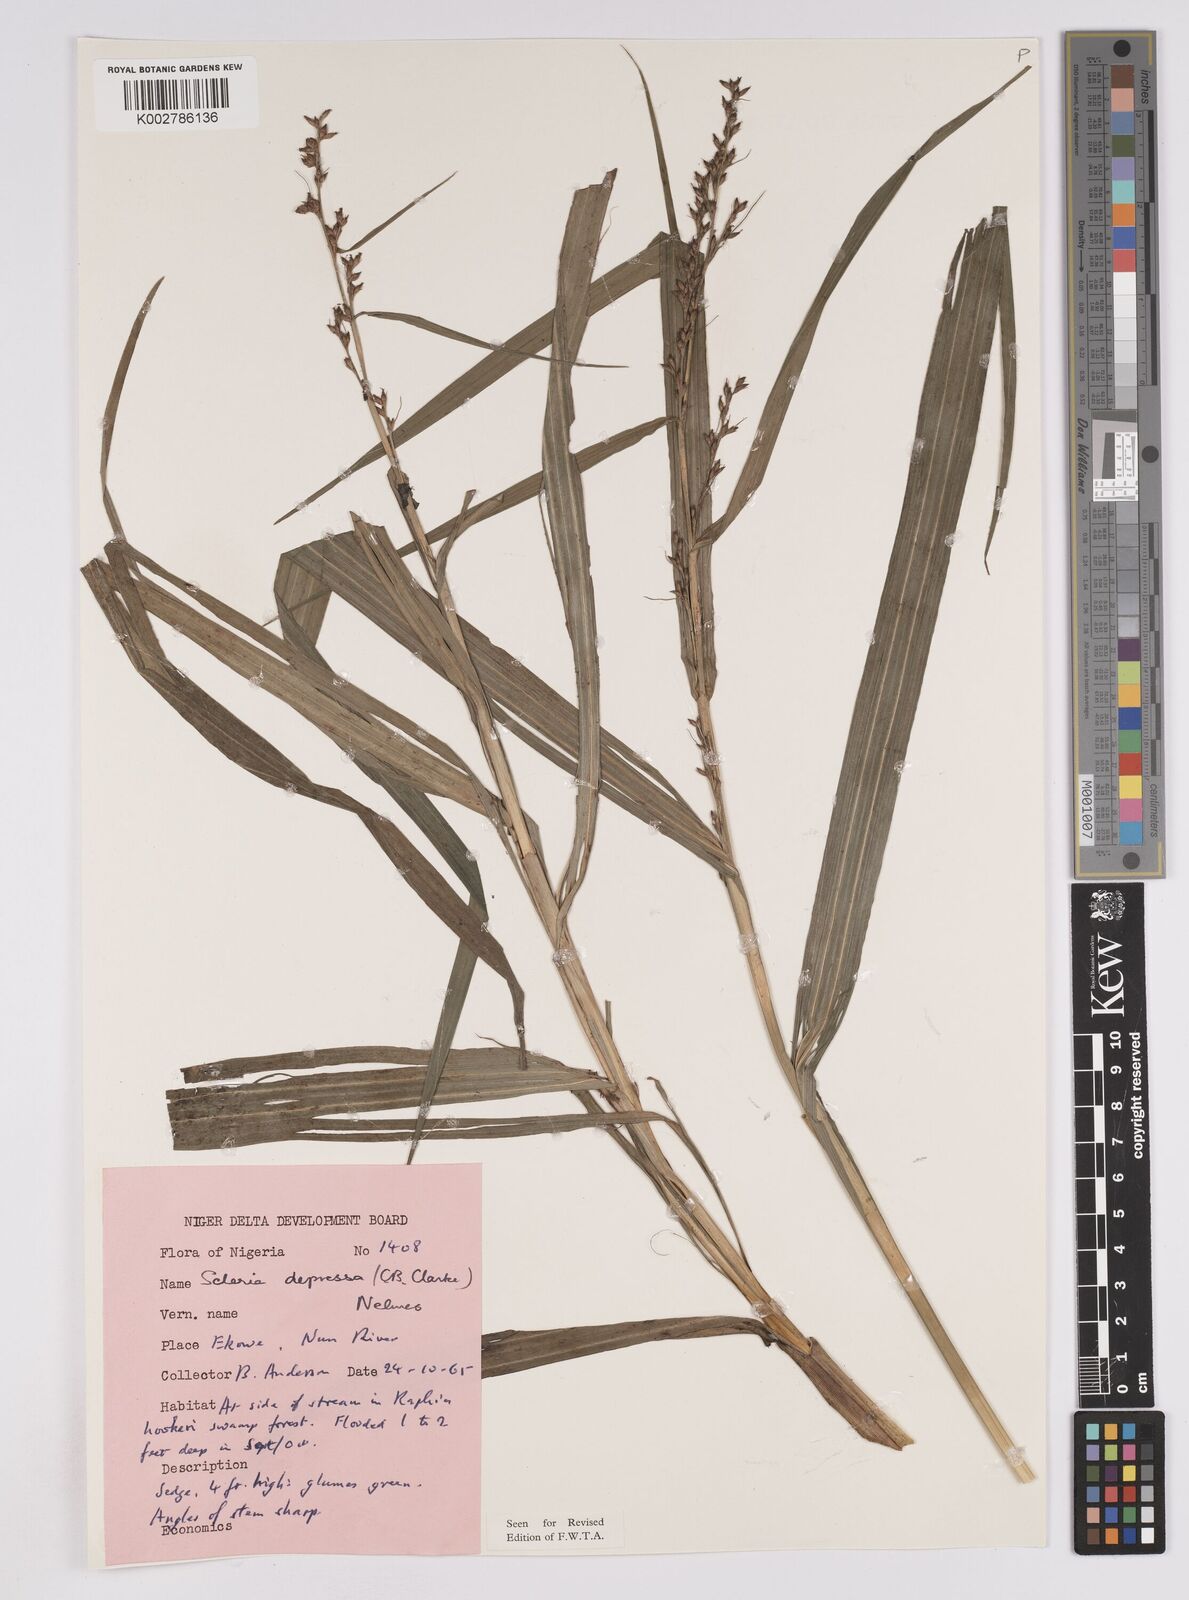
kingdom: Plantae
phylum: Tracheophyta
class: Liliopsida
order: Poales
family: Cyperaceae
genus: Scleria
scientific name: Scleria depressa
